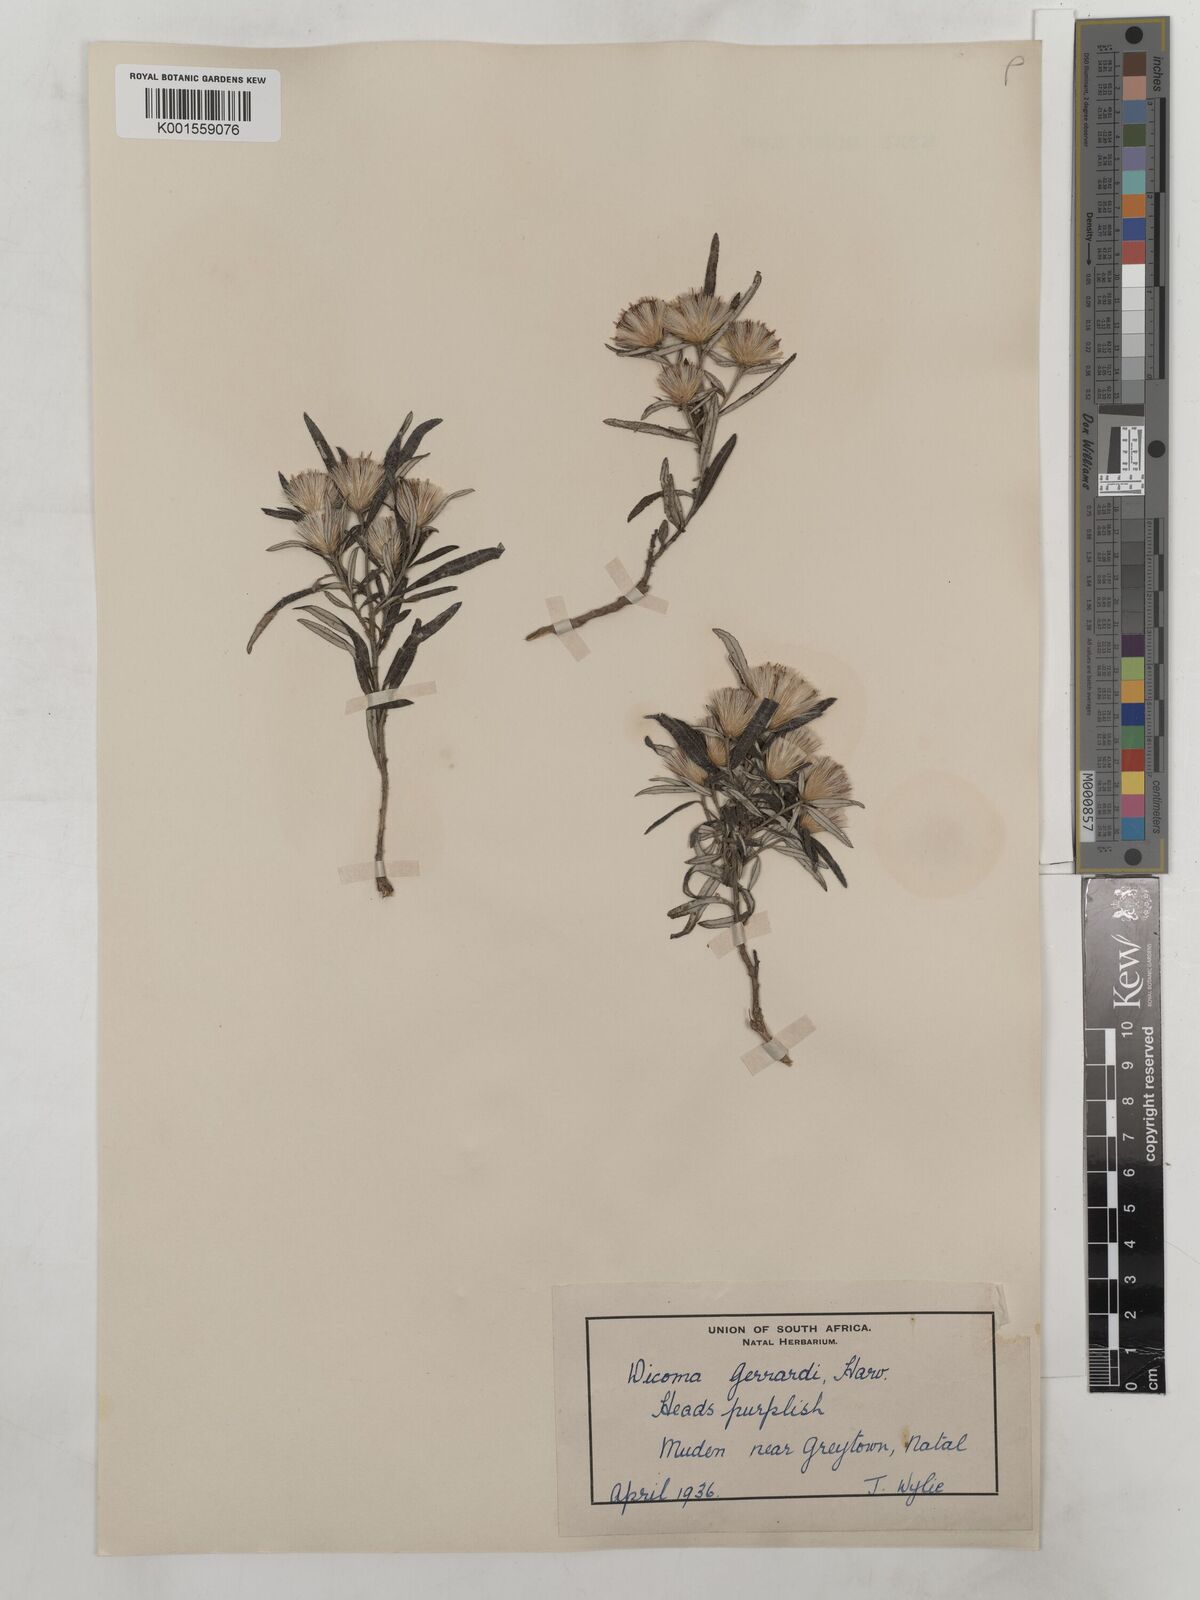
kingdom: Plantae
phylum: Tracheophyta
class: Magnoliopsida
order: Asterales
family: Asteraceae
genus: Dicoma
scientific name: Dicoma anomala
